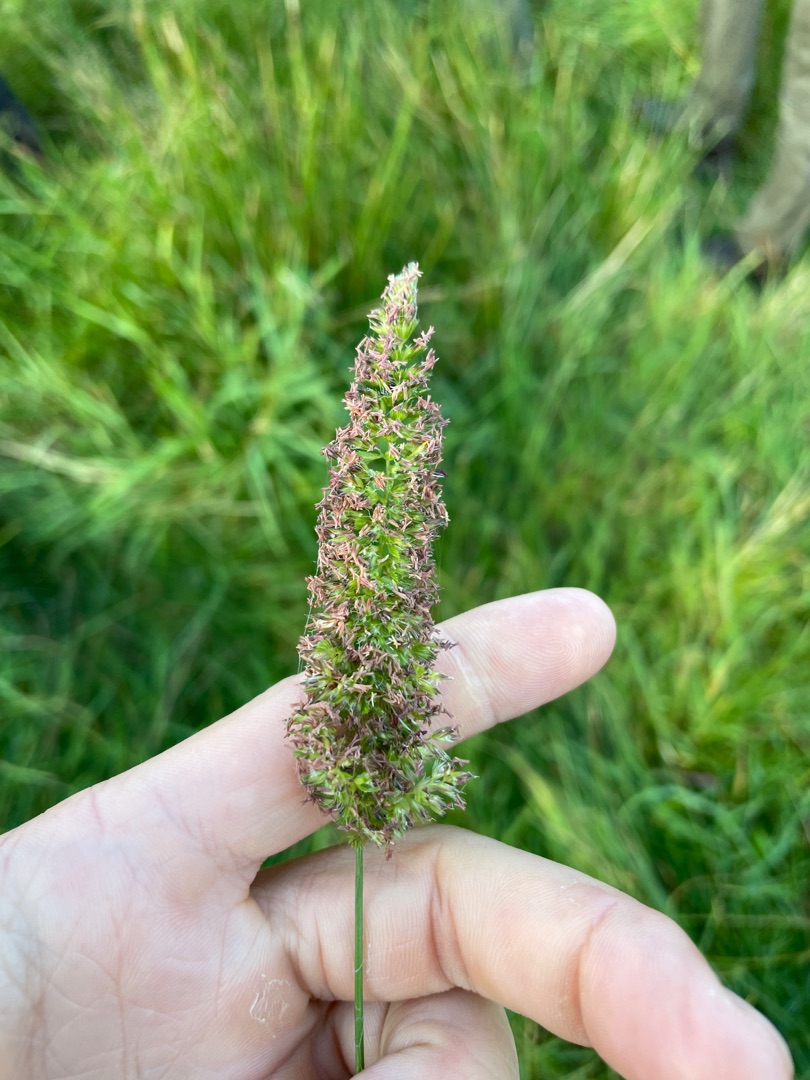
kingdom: Plantae
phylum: Tracheophyta
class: Liliopsida
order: Poales
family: Poaceae
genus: Cynosurus
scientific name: Cynosurus cristatus
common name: Kamgræs
